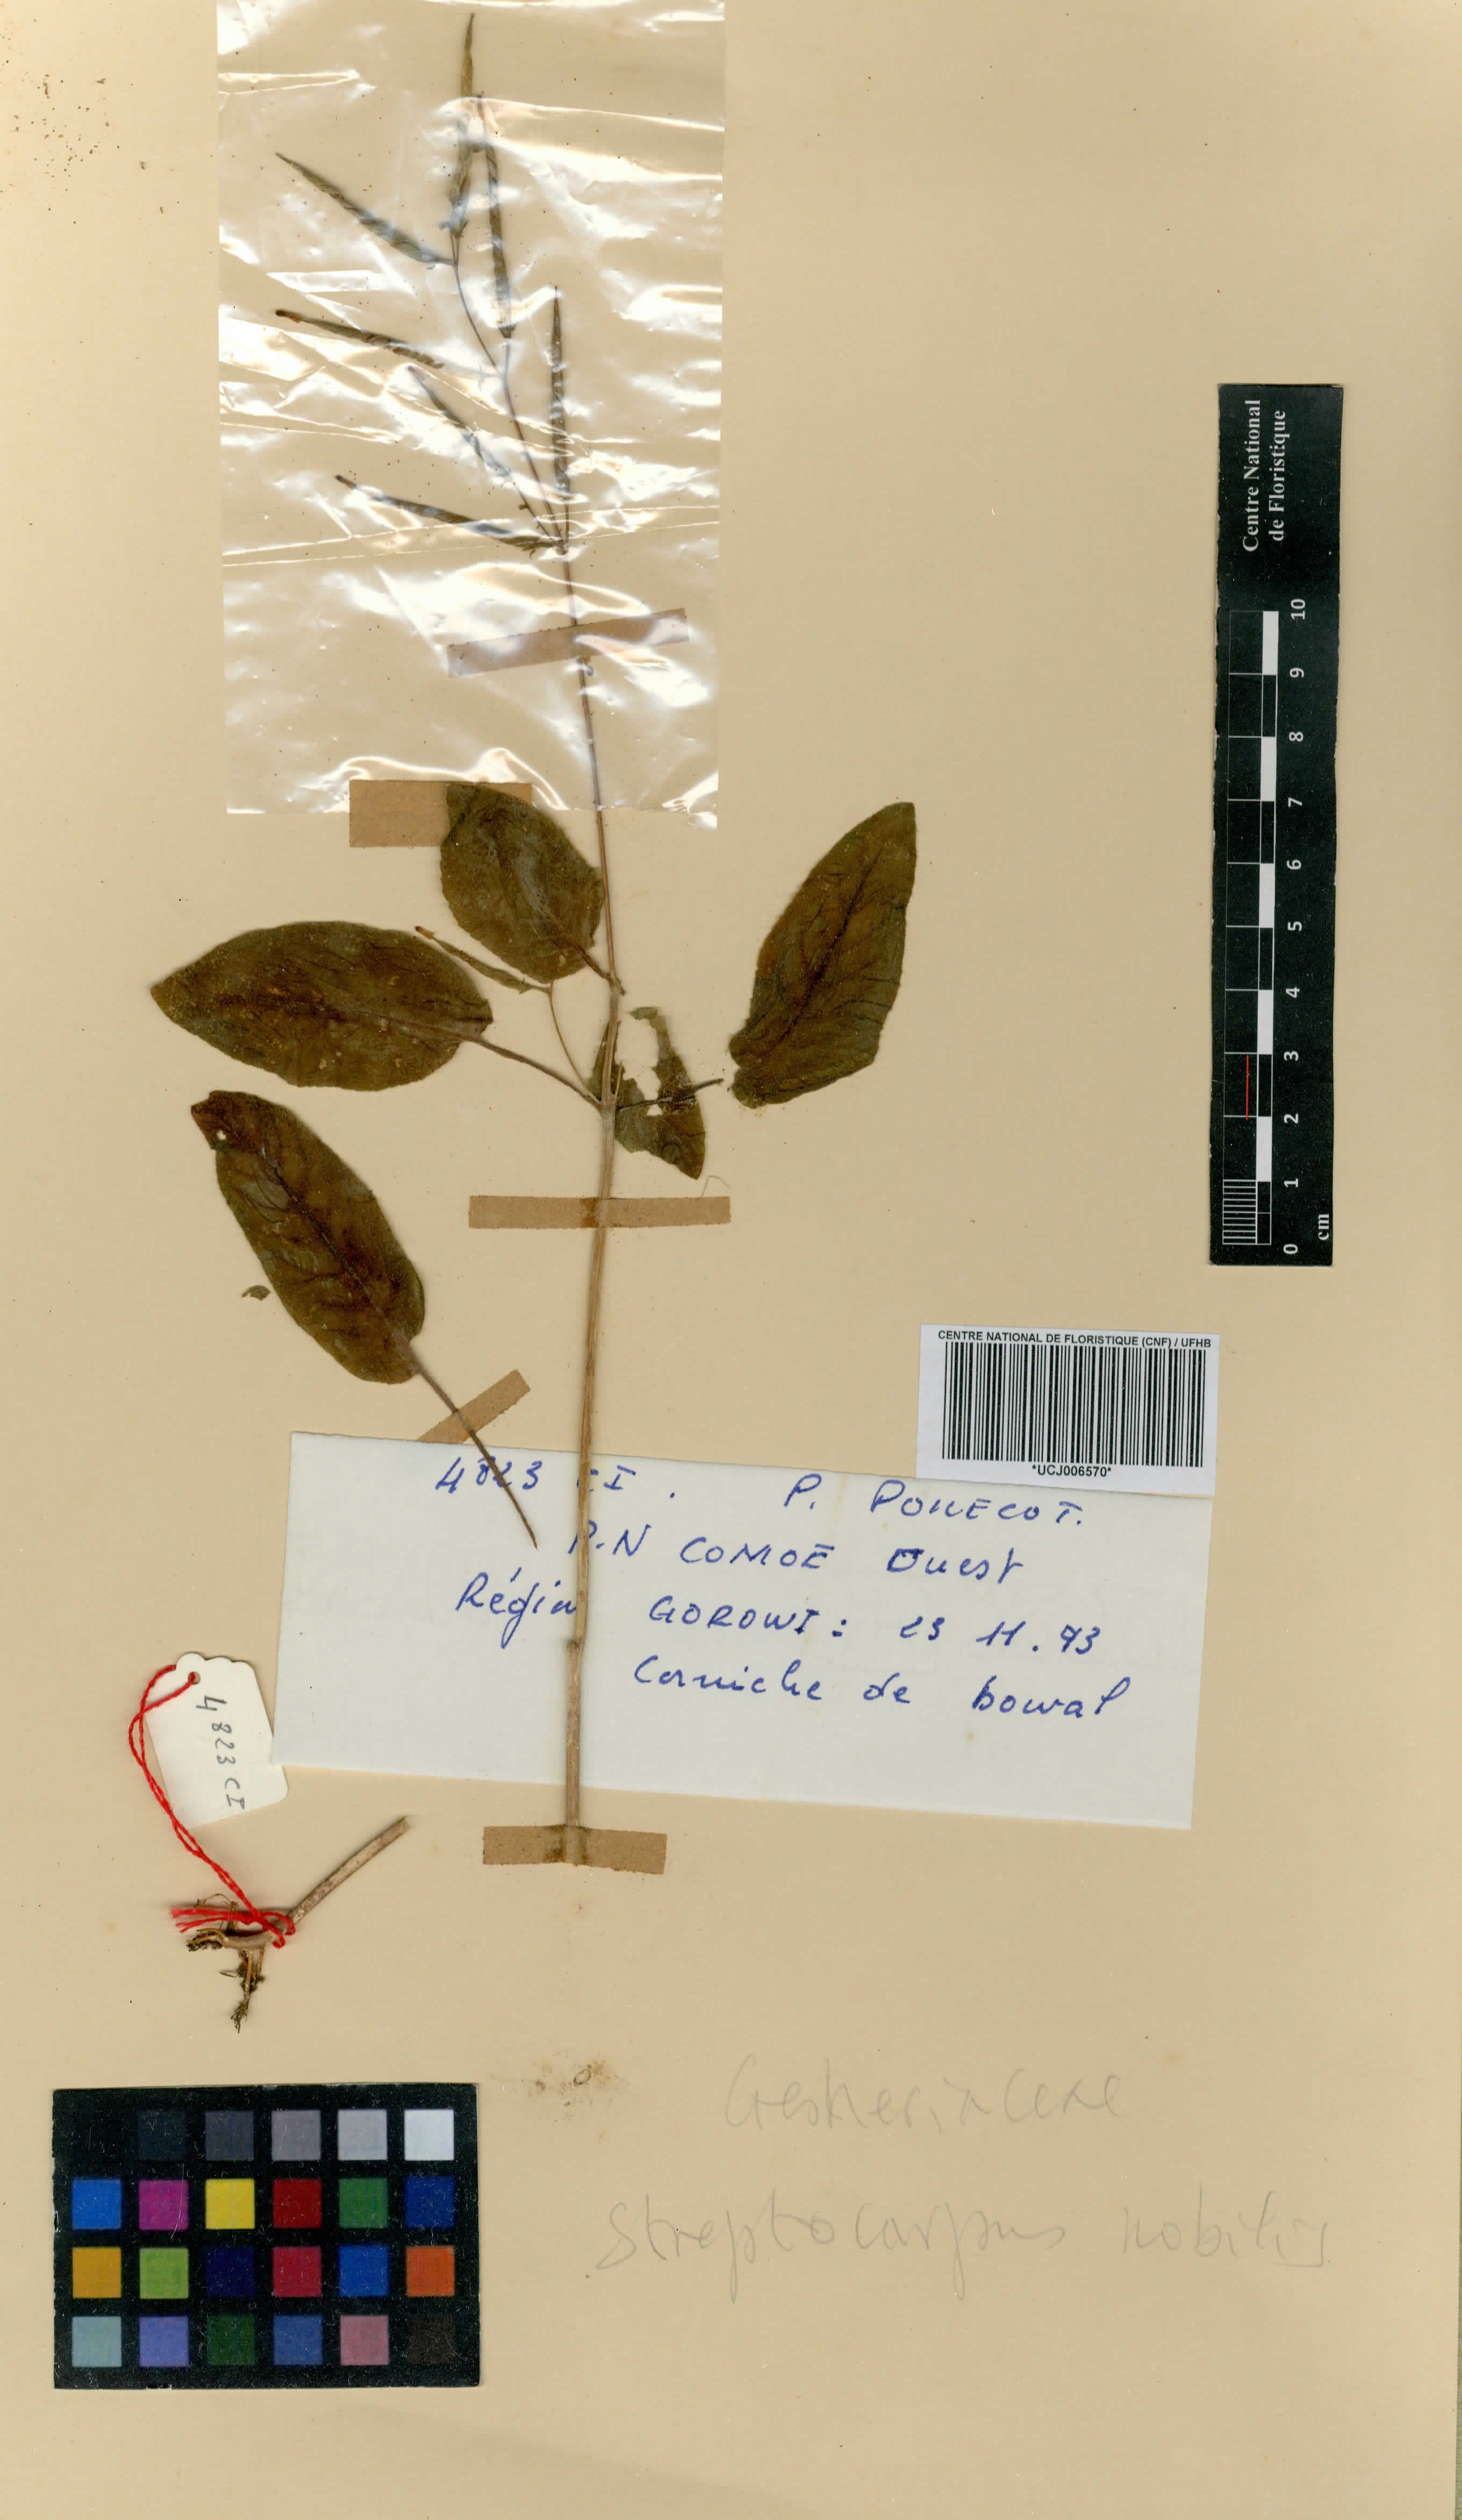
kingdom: Plantae
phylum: Tracheophyta
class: Magnoliopsida
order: Lamiales
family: Gesneriaceae
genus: Streptocarpus
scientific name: Streptocarpus nobilis
